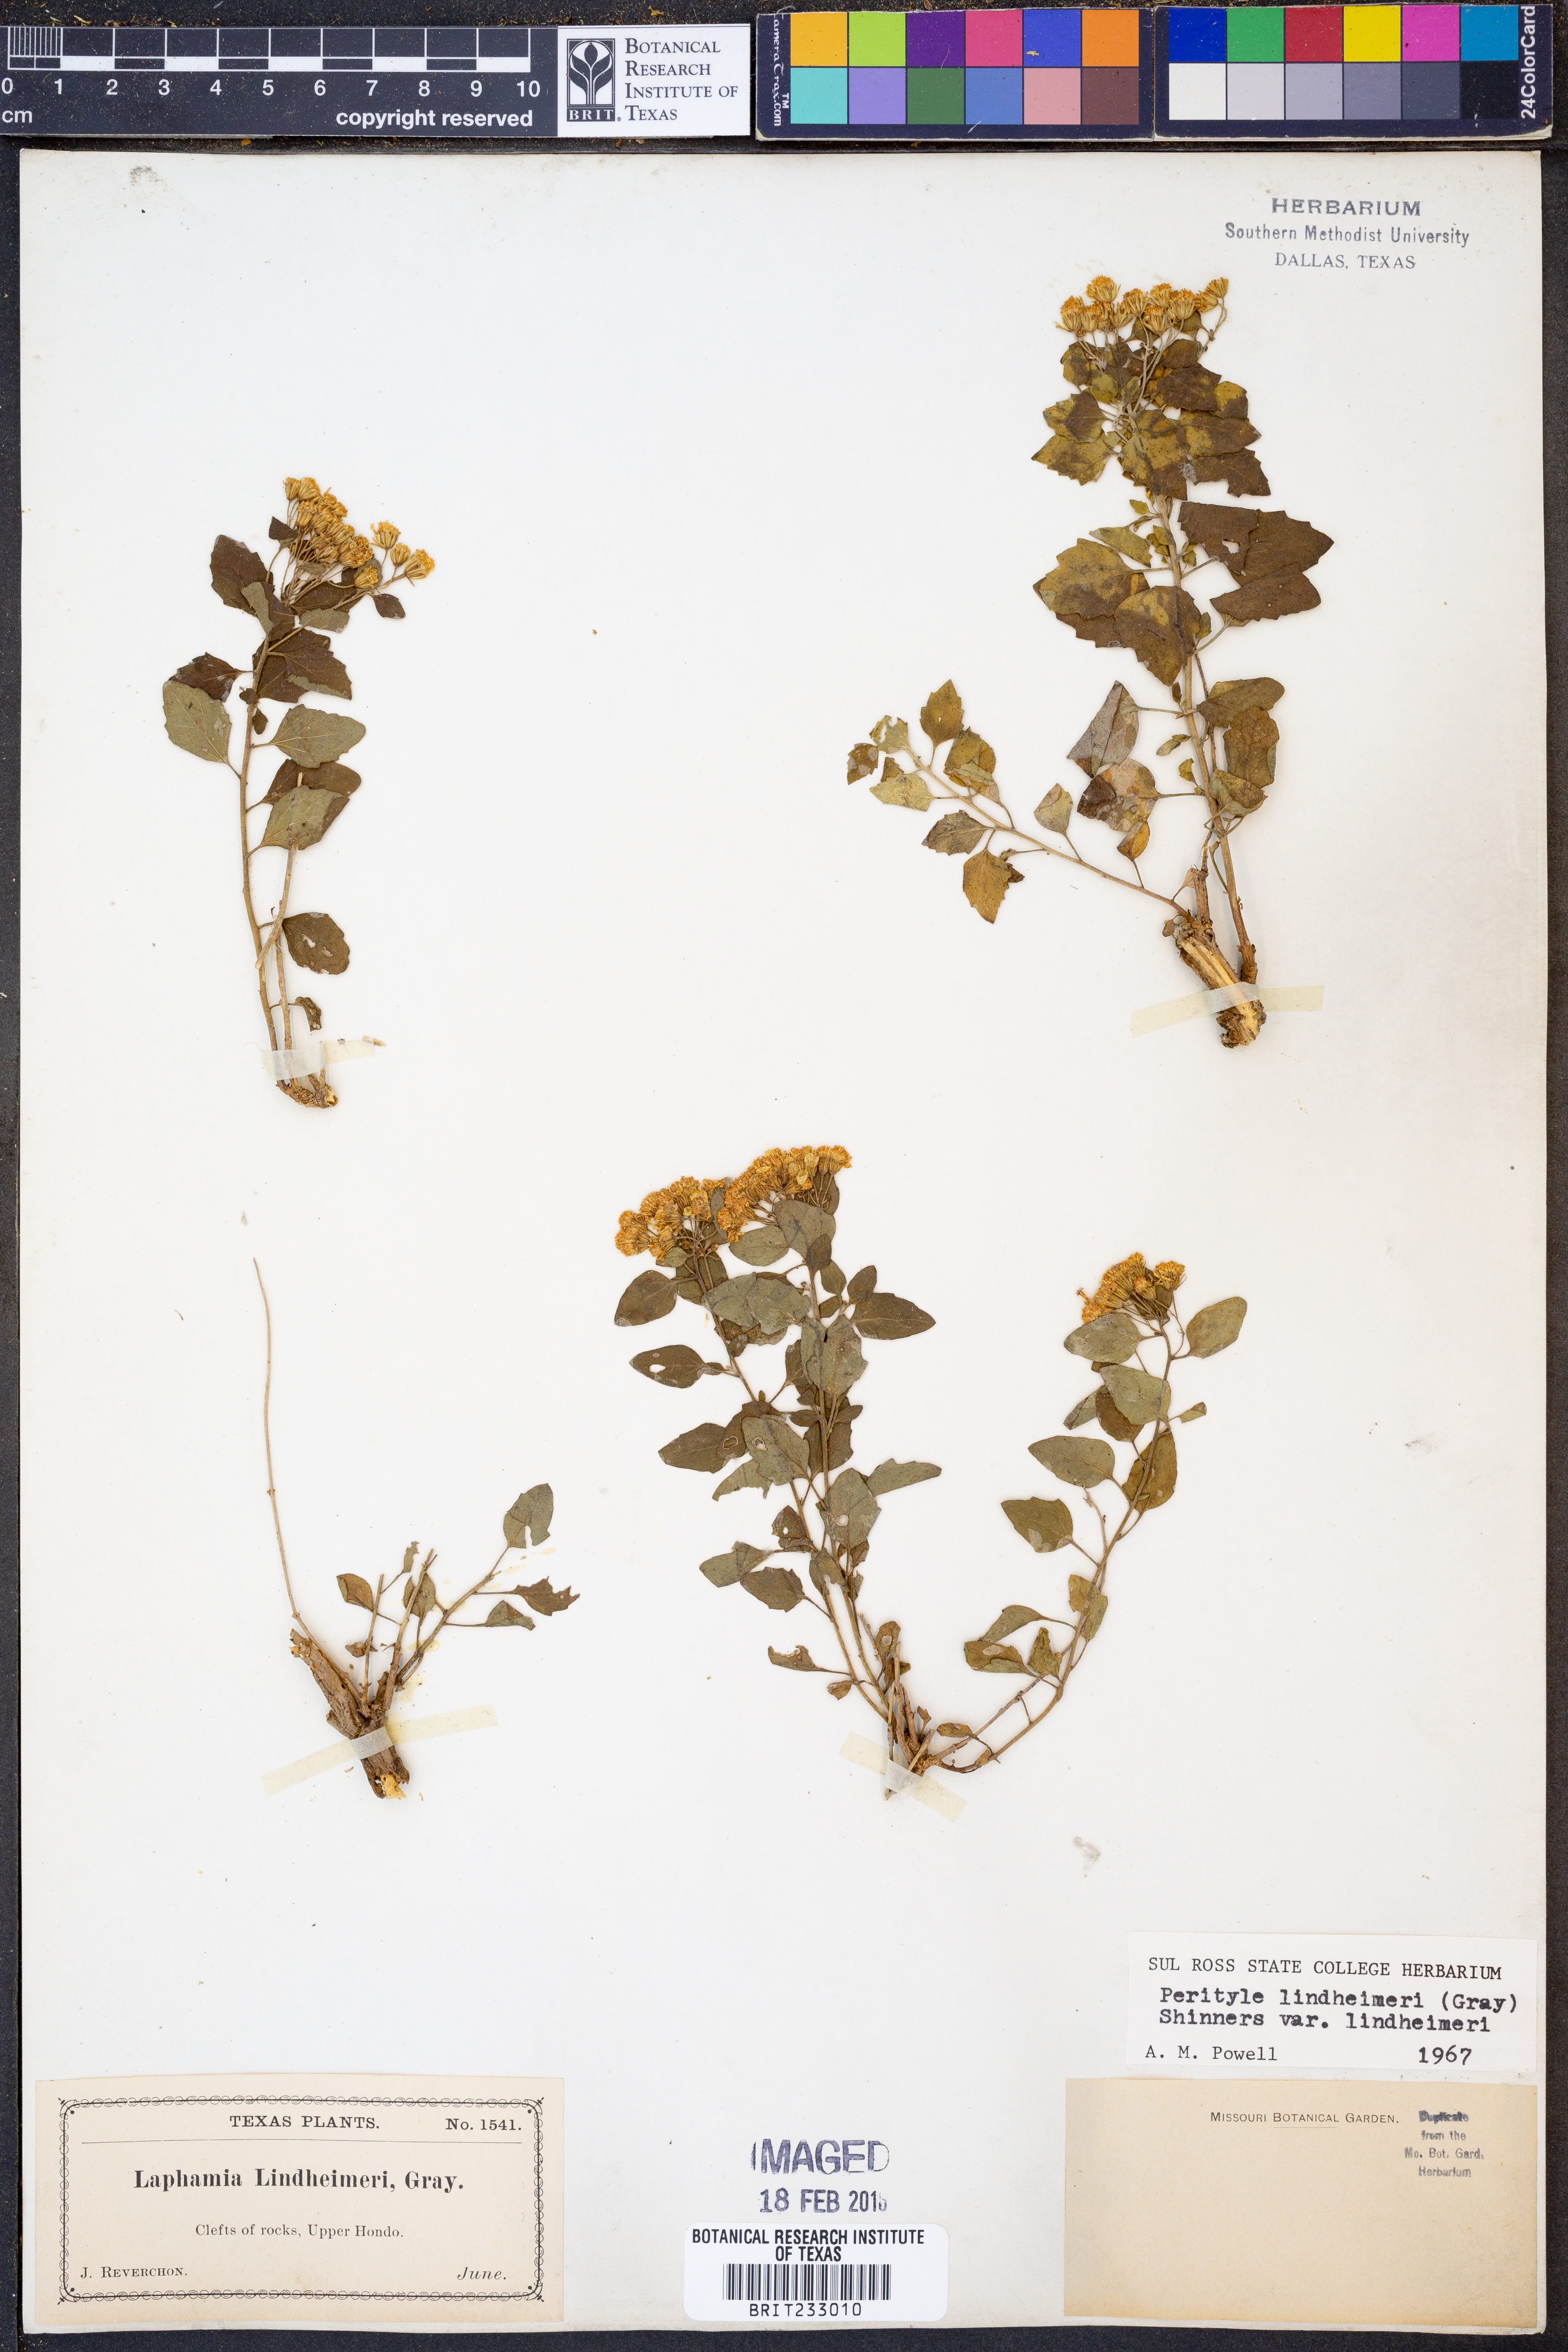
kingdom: Plantae
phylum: Tracheophyta
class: Magnoliopsida
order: Asterales
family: Asteraceae
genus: Laphamia
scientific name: Laphamia lindheimeri
